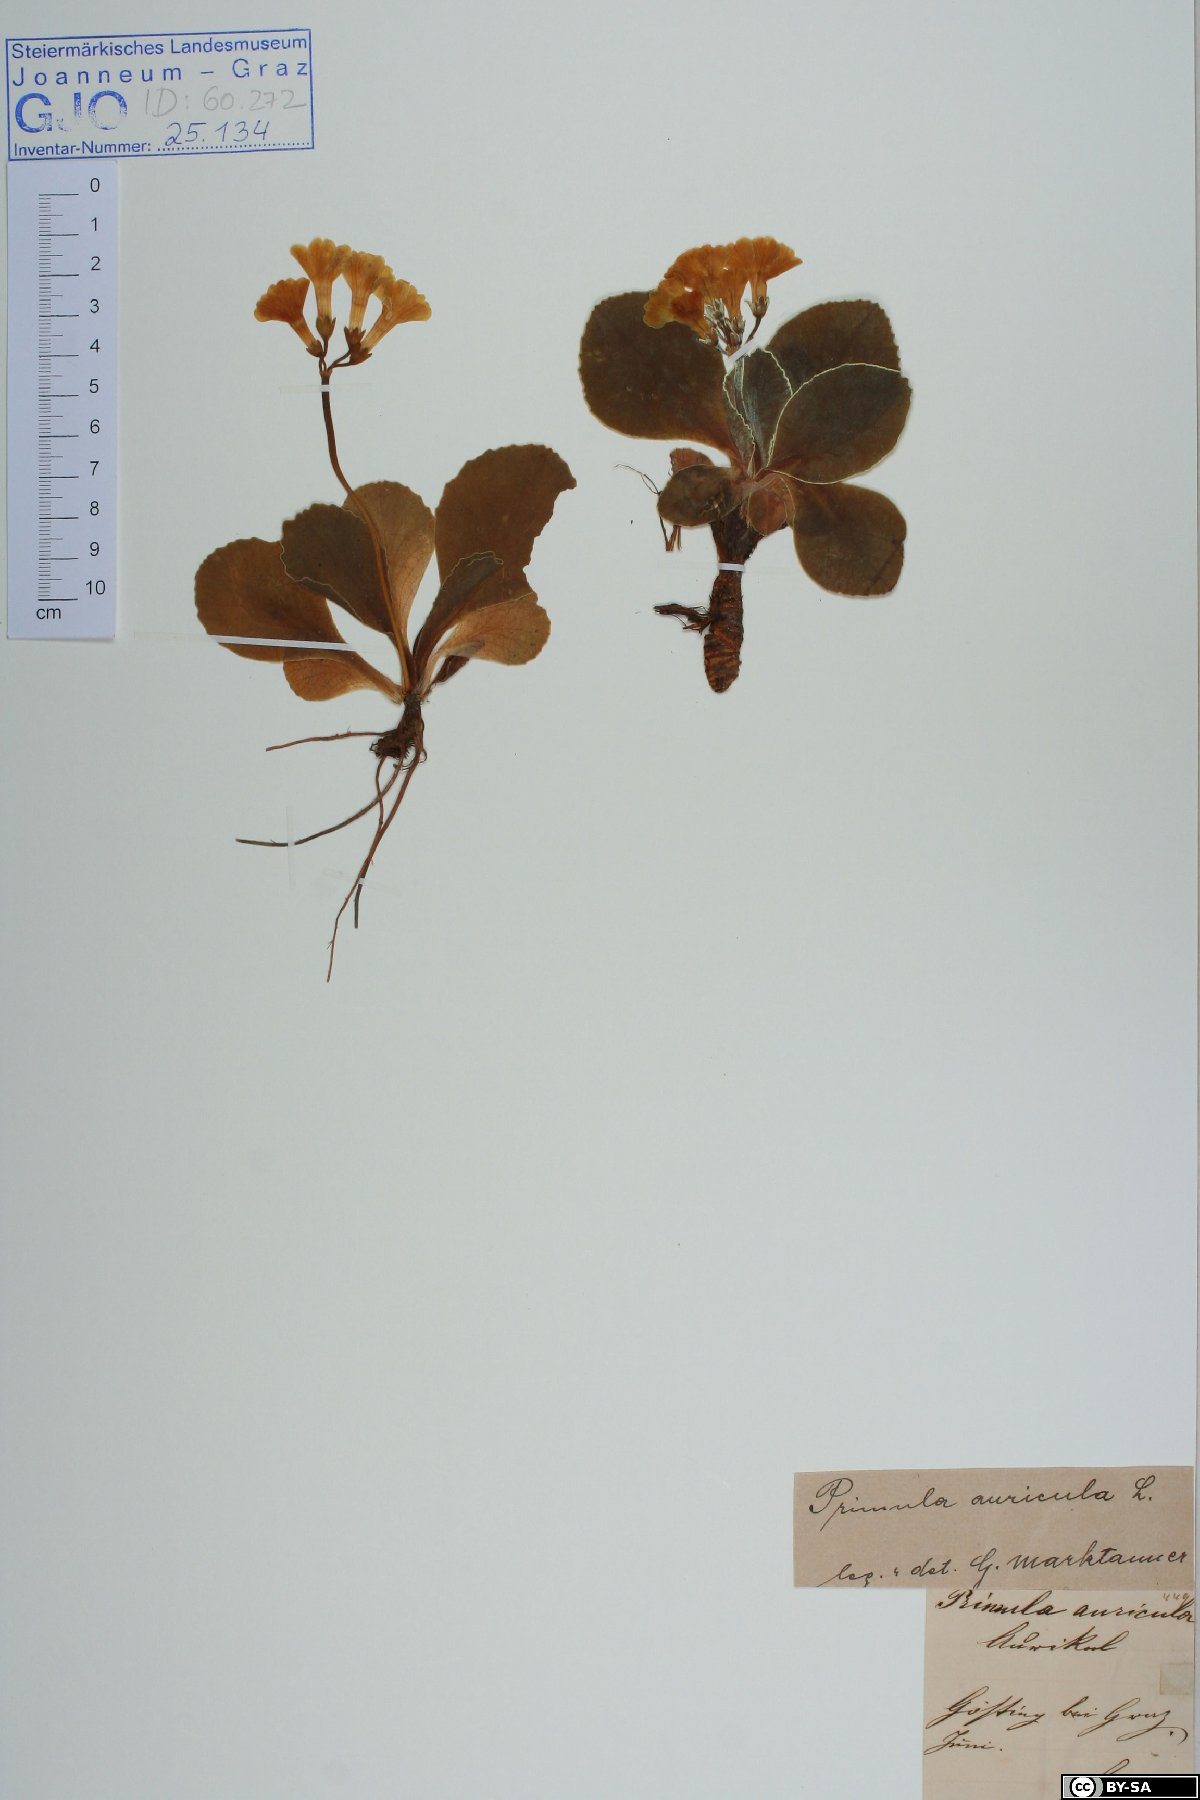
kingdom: Plantae
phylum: Tracheophyta
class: Magnoliopsida
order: Ericales
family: Primulaceae
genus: Primula
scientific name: Primula auricula
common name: Auricula
